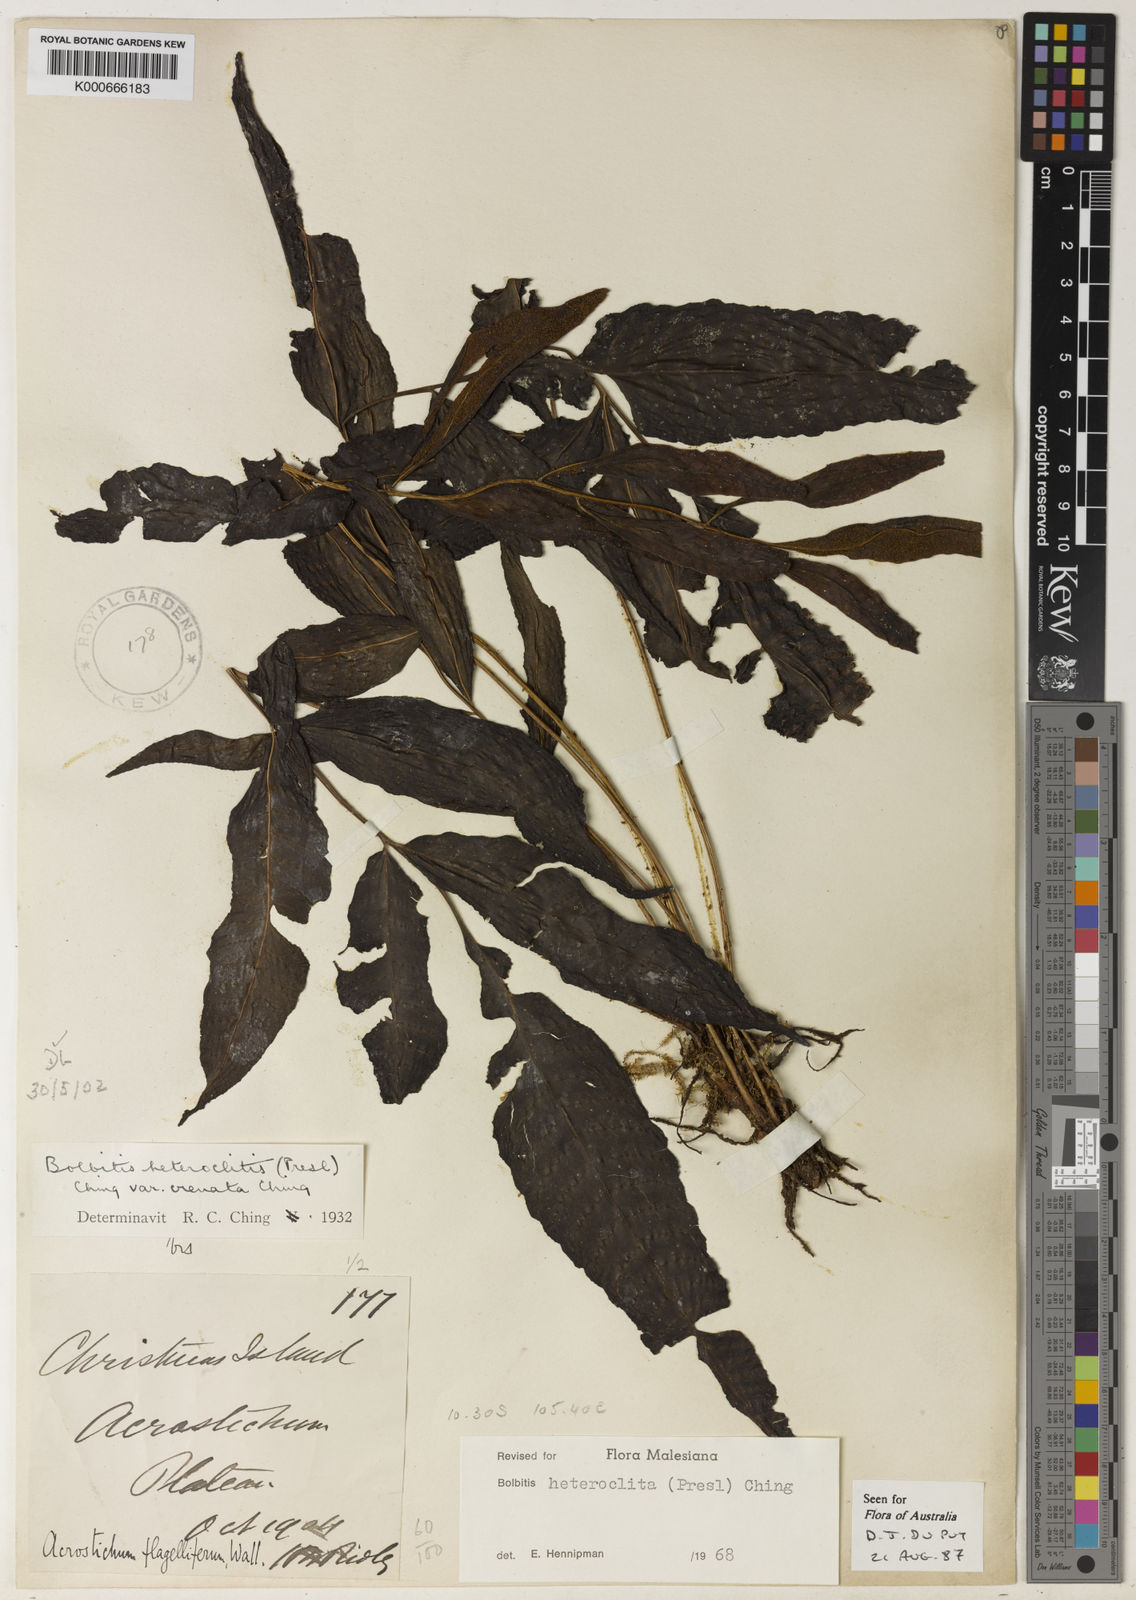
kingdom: Plantae
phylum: Tracheophyta
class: Polypodiopsida
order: Polypodiales
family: Dryopteridaceae
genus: Bolbitis
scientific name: Bolbitis heteroclita
